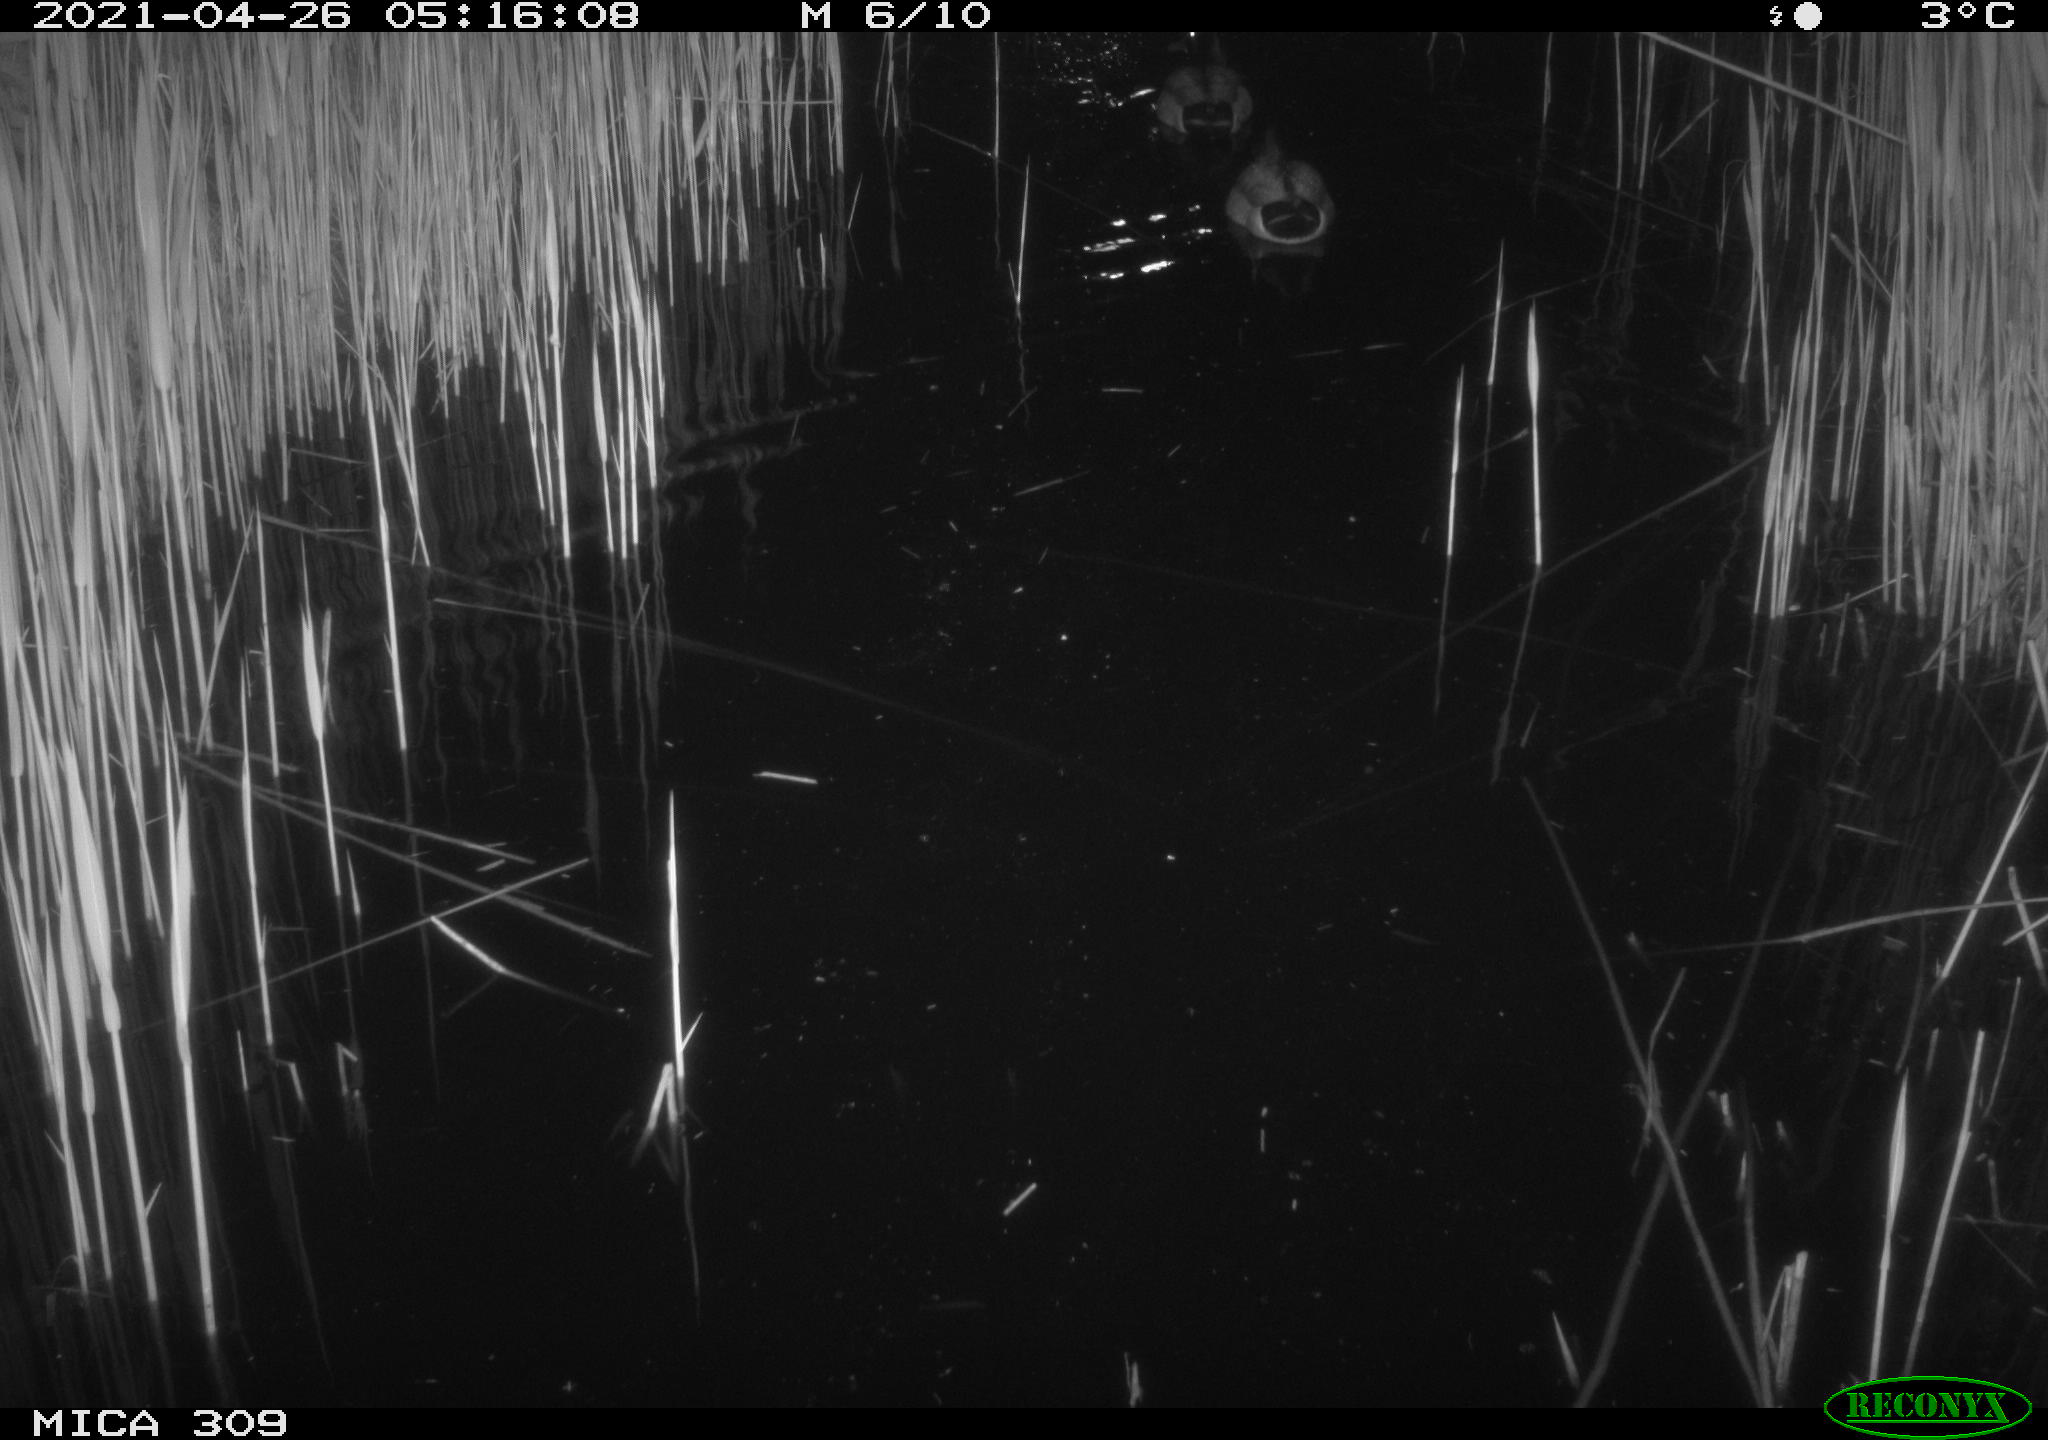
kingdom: Animalia
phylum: Chordata
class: Aves
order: Anseriformes
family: Anatidae
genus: Anas
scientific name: Anas platyrhynchos
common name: Mallard
